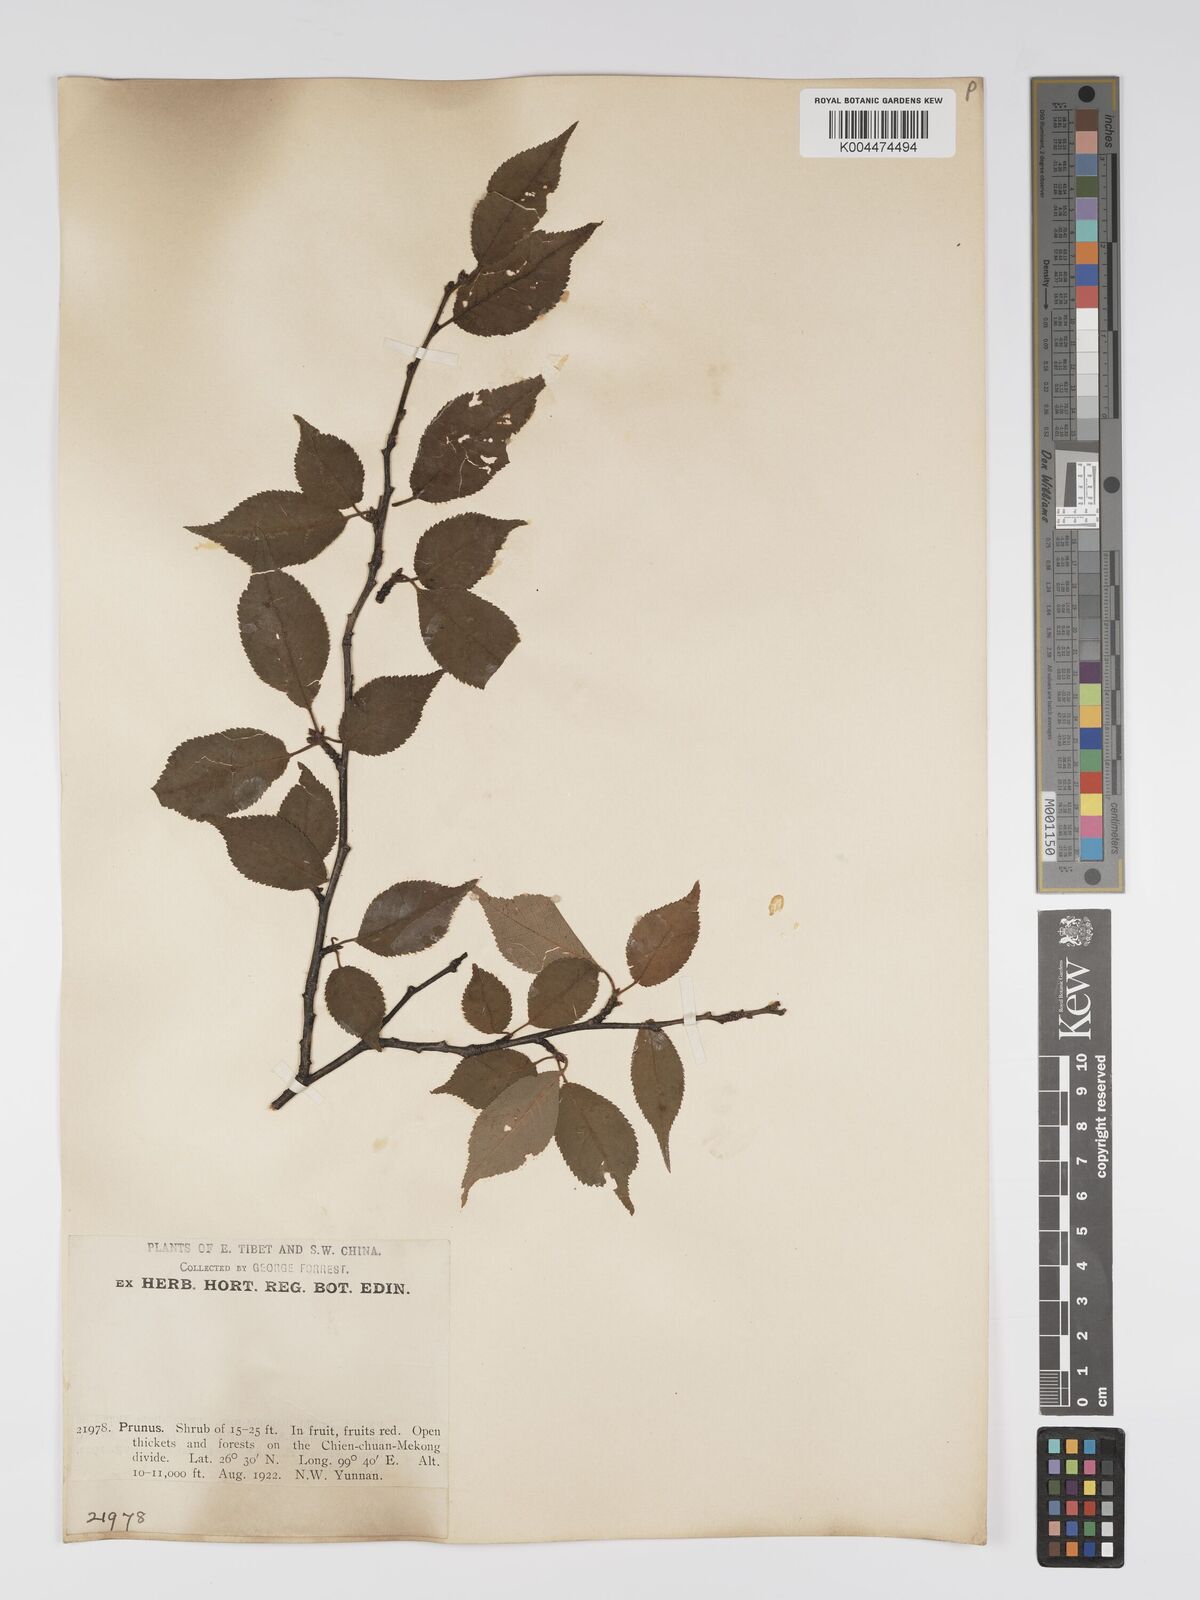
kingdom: Plantae
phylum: Tracheophyta
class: Magnoliopsida
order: Rosales
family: Rosaceae
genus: Prunus
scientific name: Prunus
